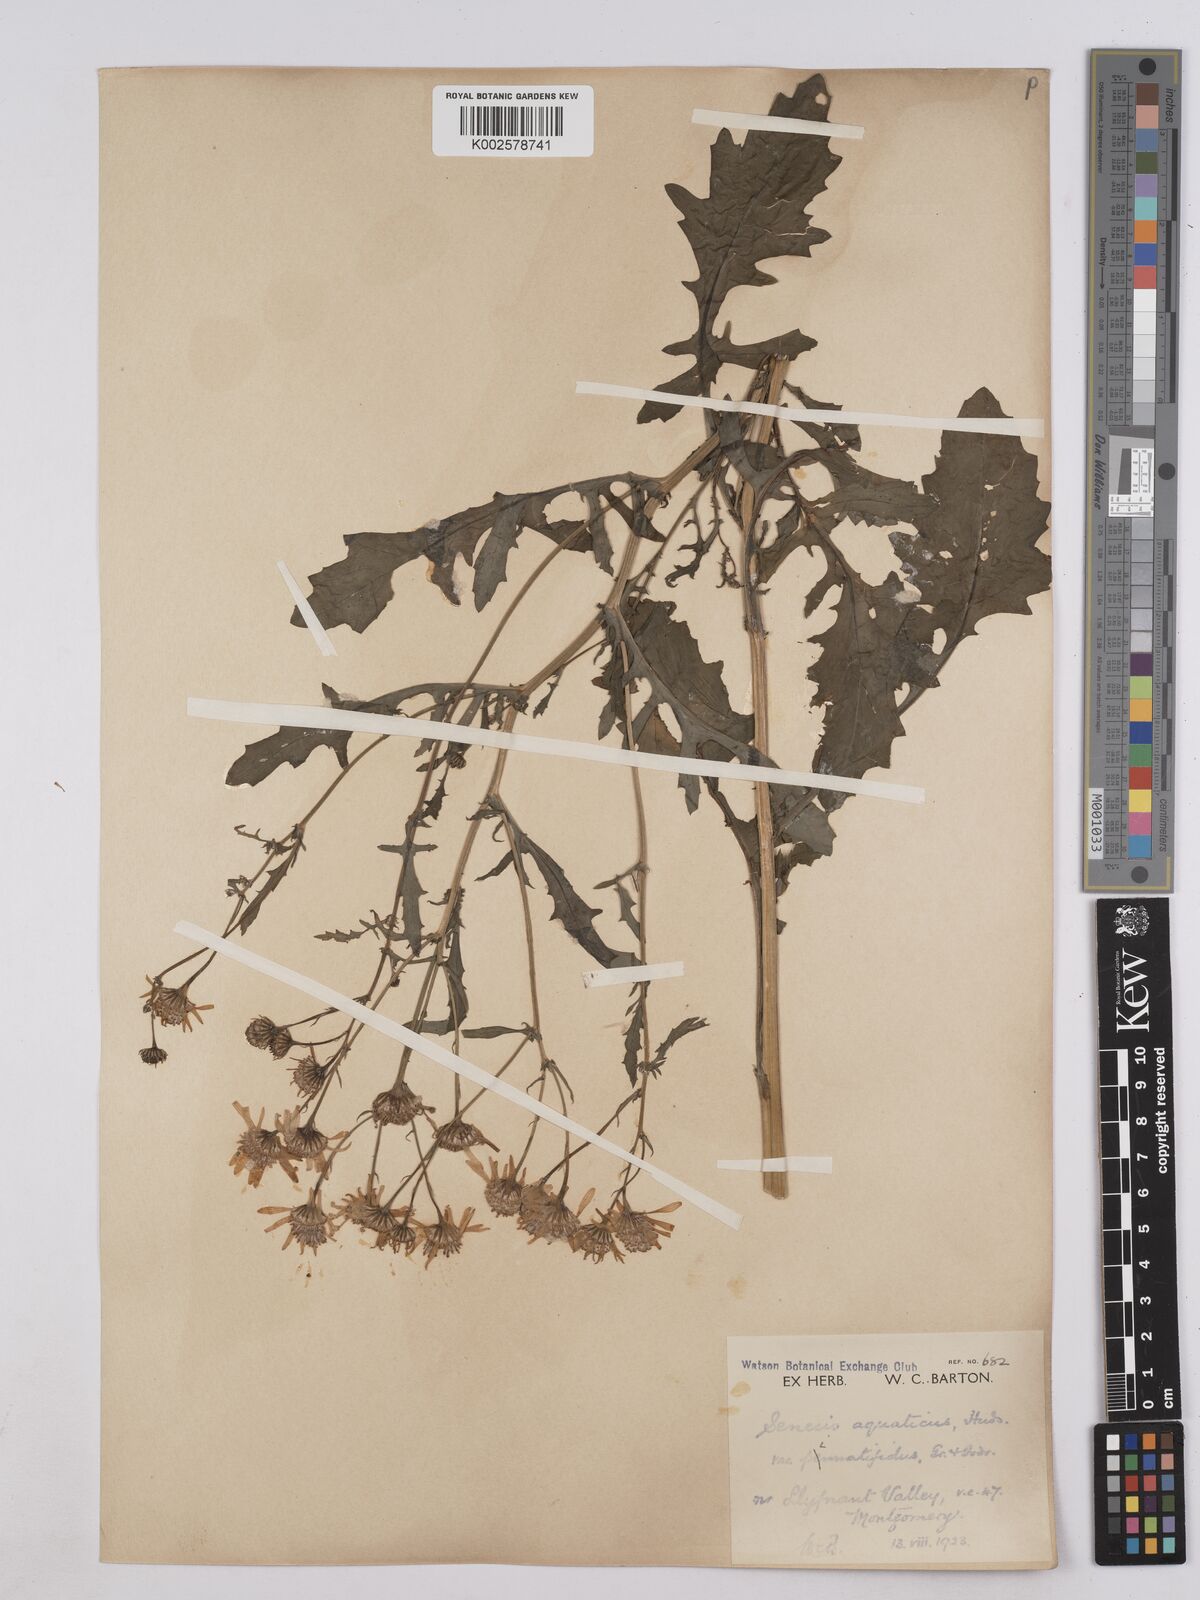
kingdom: Plantae
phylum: Tracheophyta
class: Magnoliopsida
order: Asterales
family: Asteraceae
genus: Jacobaea
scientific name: Jacobaea aquatica
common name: Water ragwort
